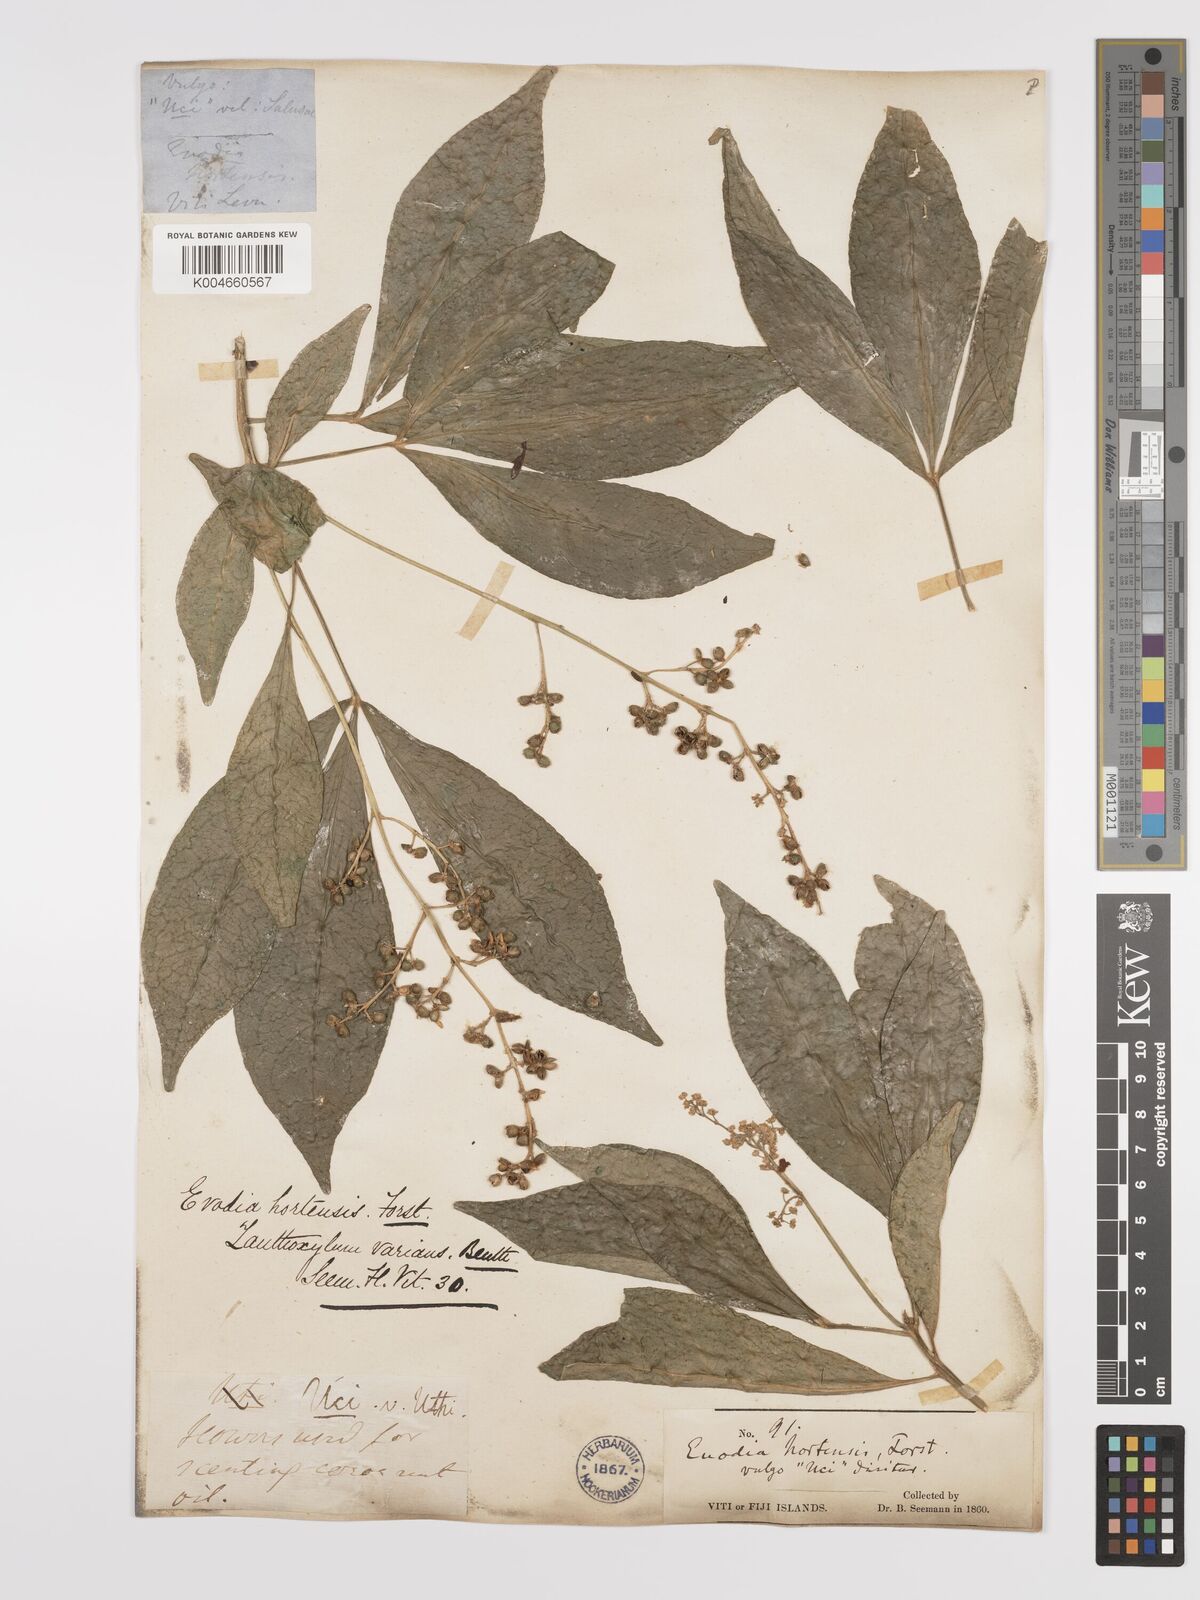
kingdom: Plantae
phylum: Tracheophyta
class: Magnoliopsida
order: Sapindales
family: Rutaceae
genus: Euodia
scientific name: Euodia hortensis
